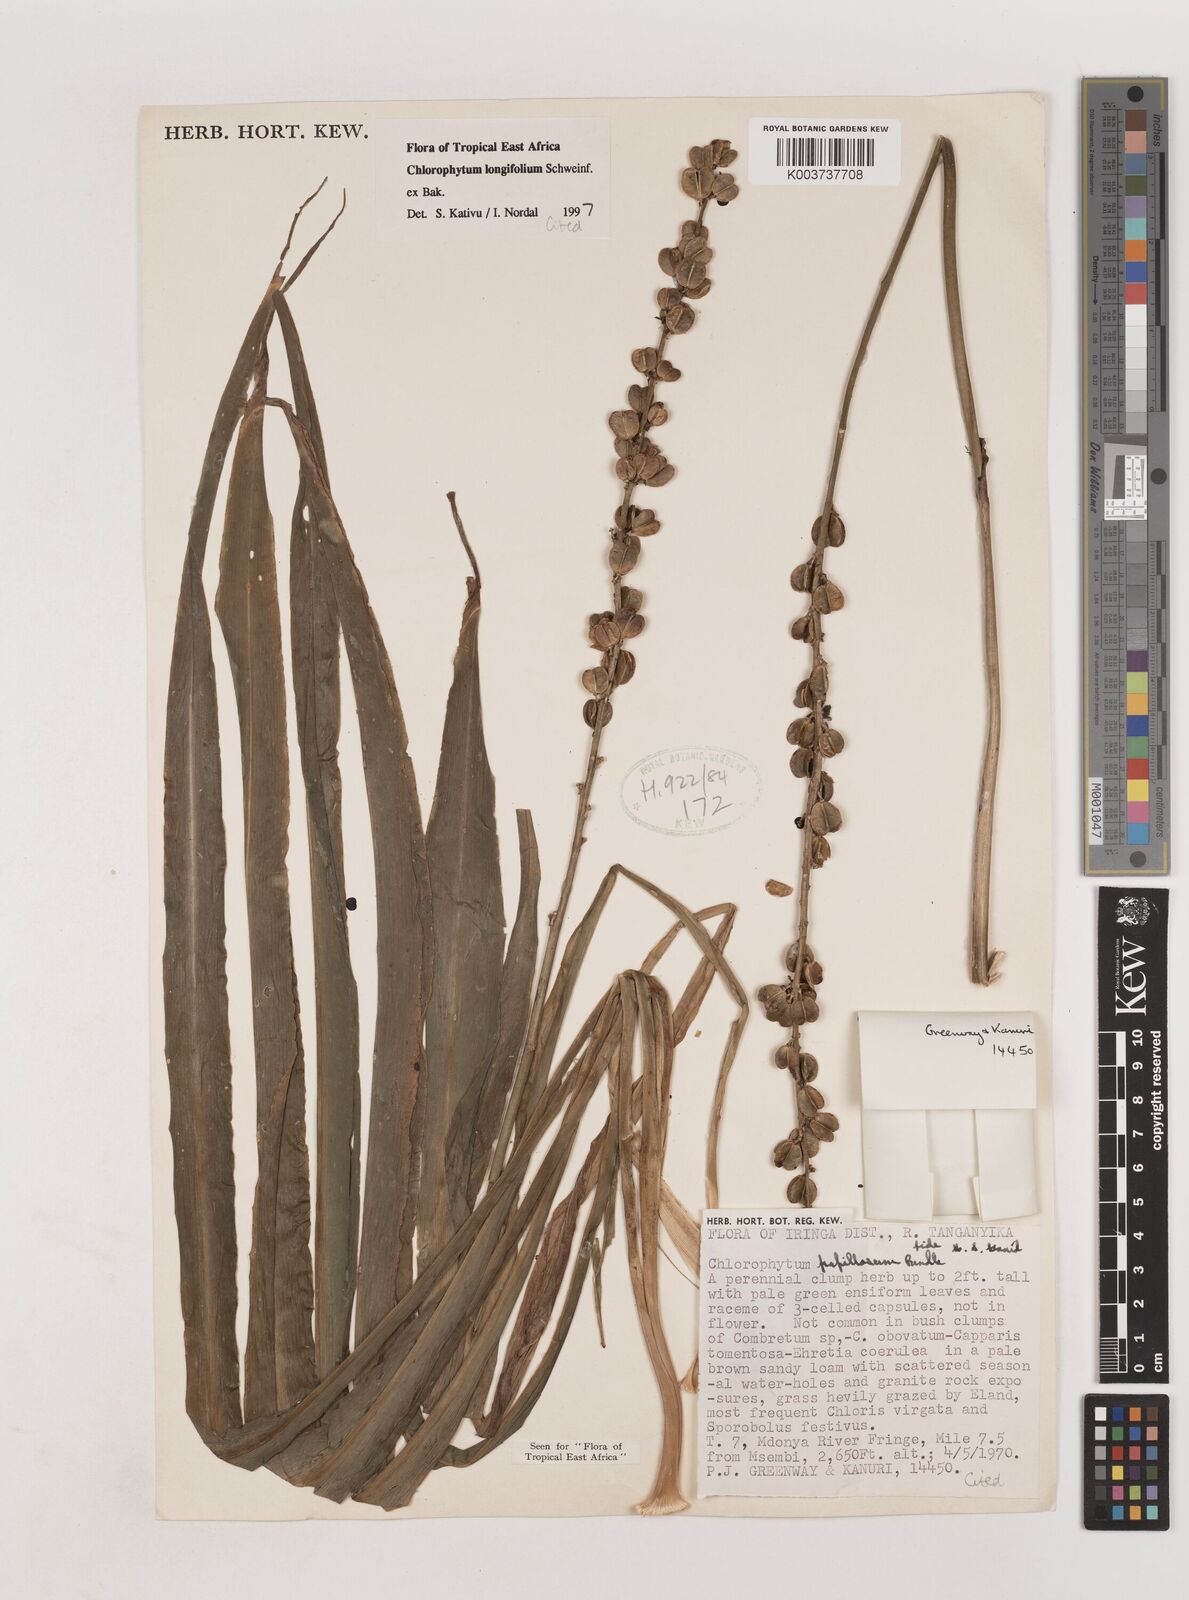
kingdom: Plantae
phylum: Tracheophyta
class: Liliopsida
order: Asparagales
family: Asparagaceae
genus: Chlorophytum
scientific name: Chlorophytum longifolium
